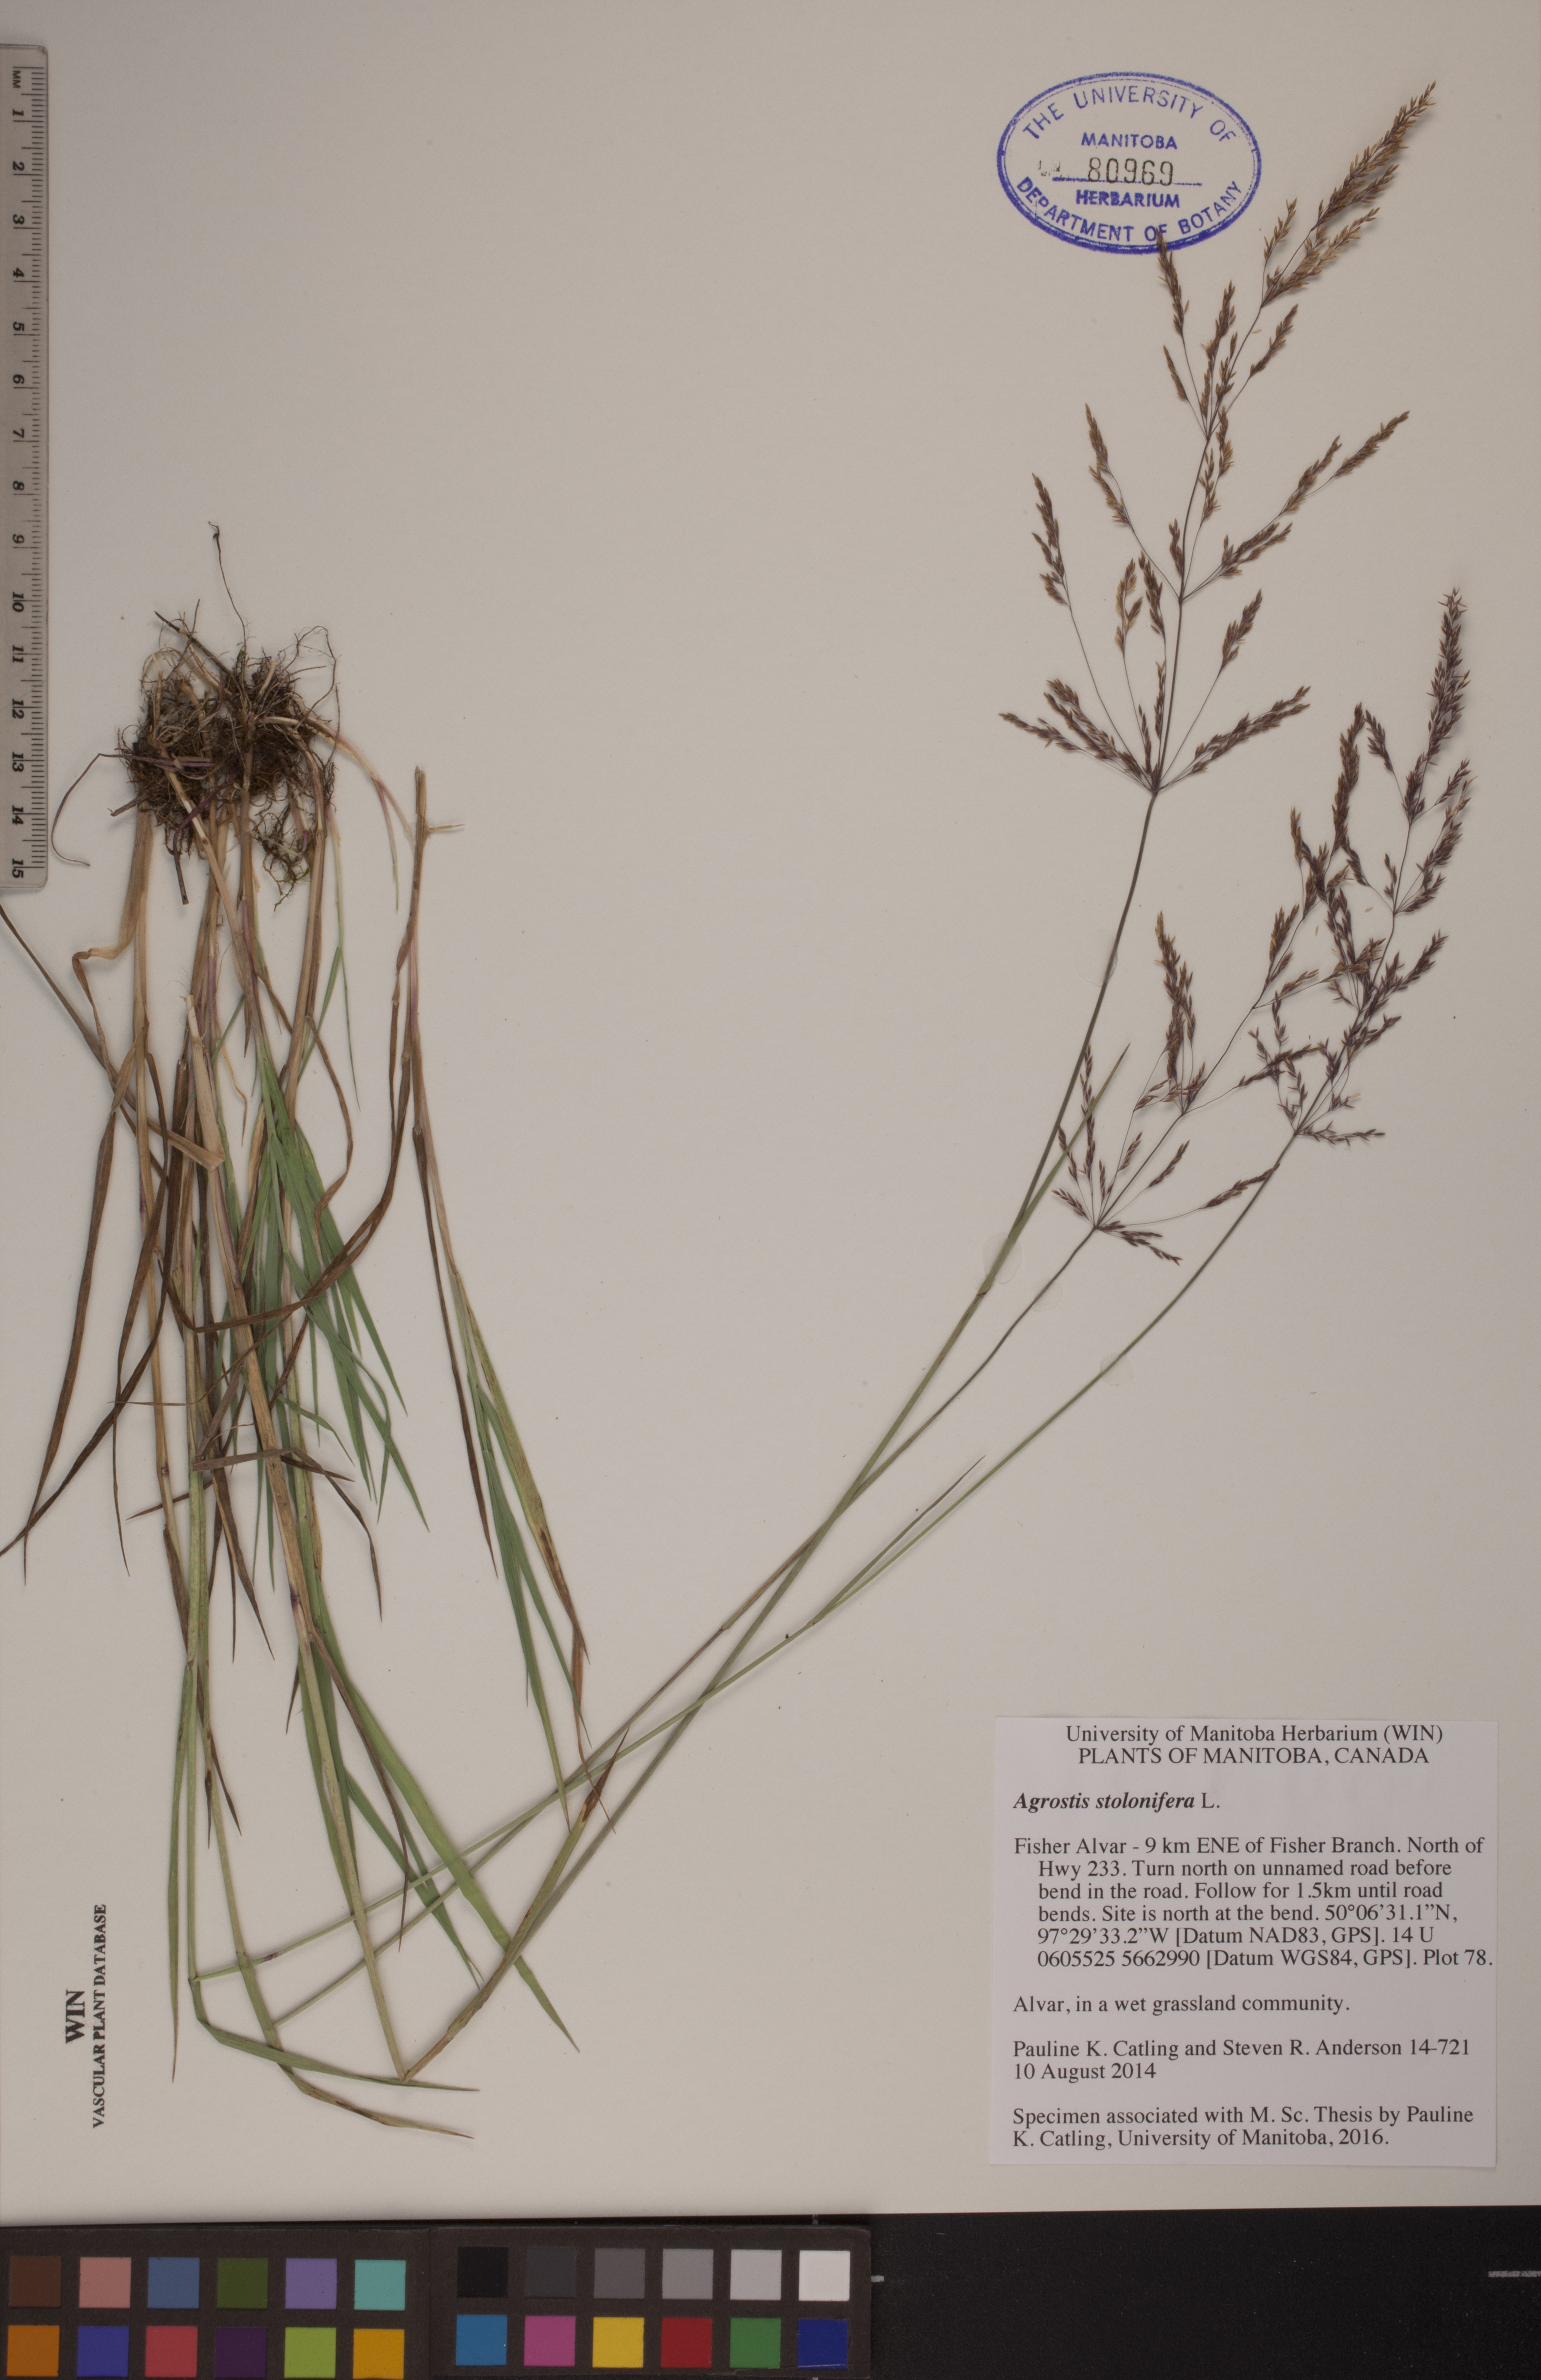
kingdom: Plantae
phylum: Tracheophyta
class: Liliopsida
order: Poales
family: Poaceae
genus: Agrostis
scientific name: Agrostis stolonifera
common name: Creeping bentgrass
